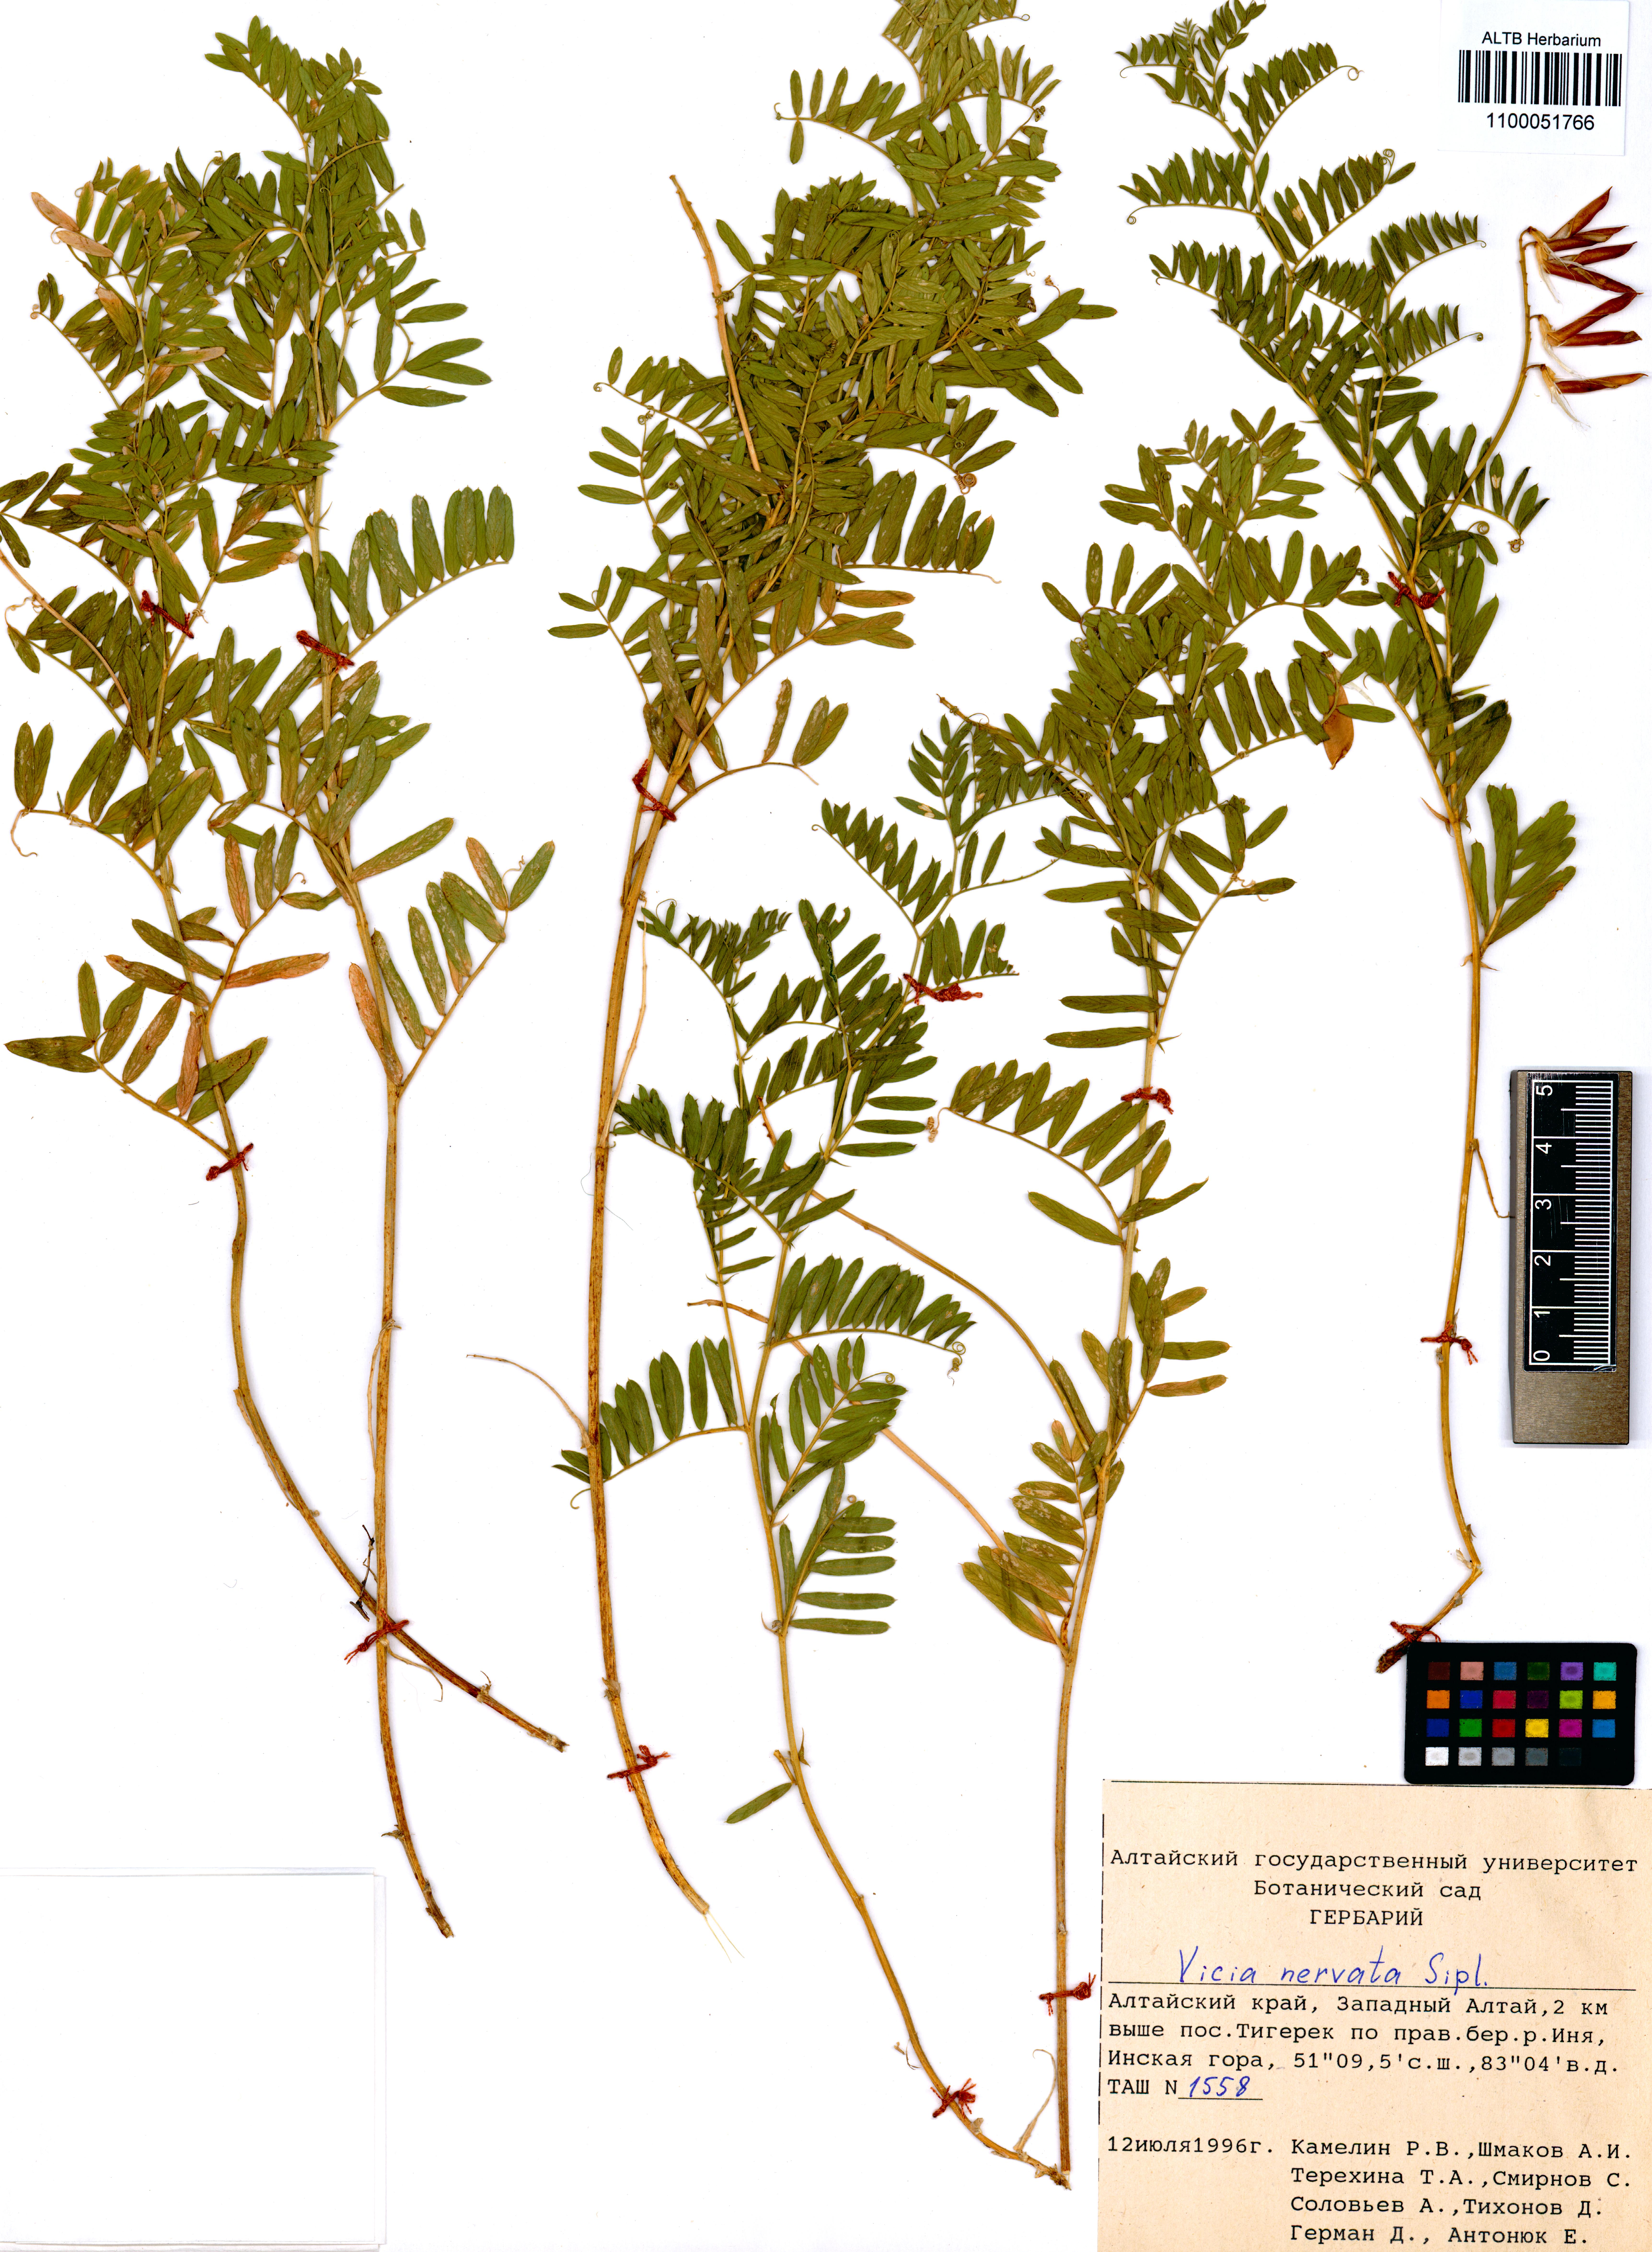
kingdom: Plantae
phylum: Tracheophyta
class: Magnoliopsida
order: Fabales
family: Fabaceae
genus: Vicia
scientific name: Vicia multicaulis
